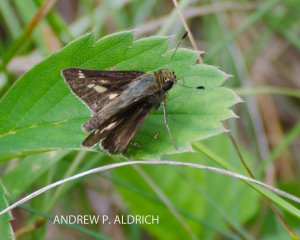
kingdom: Animalia
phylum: Arthropoda
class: Insecta
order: Lepidoptera
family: Hesperiidae
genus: Vernia
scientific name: Vernia verna
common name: Little Glassywing
